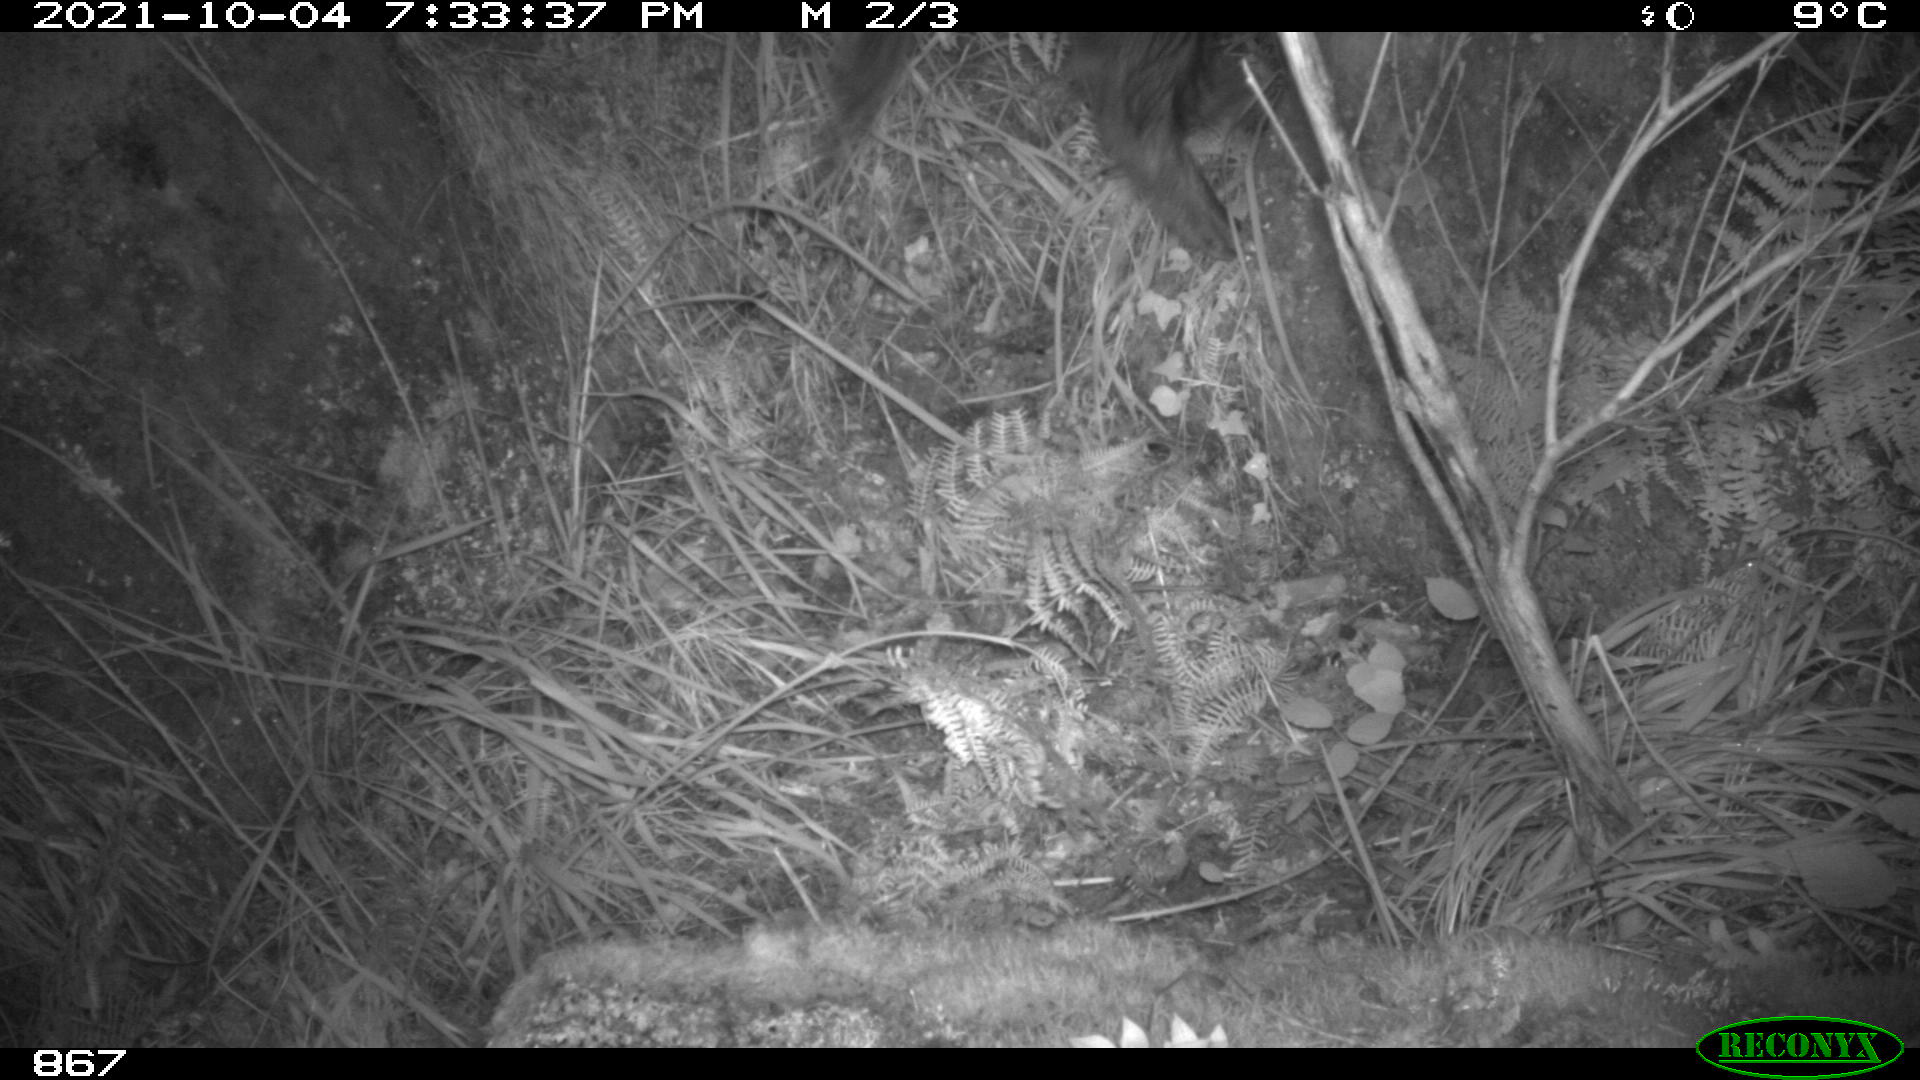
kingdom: Animalia
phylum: Chordata
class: Mammalia
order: Artiodactyla
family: Suidae
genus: Sus
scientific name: Sus scrofa
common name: Wild boar
